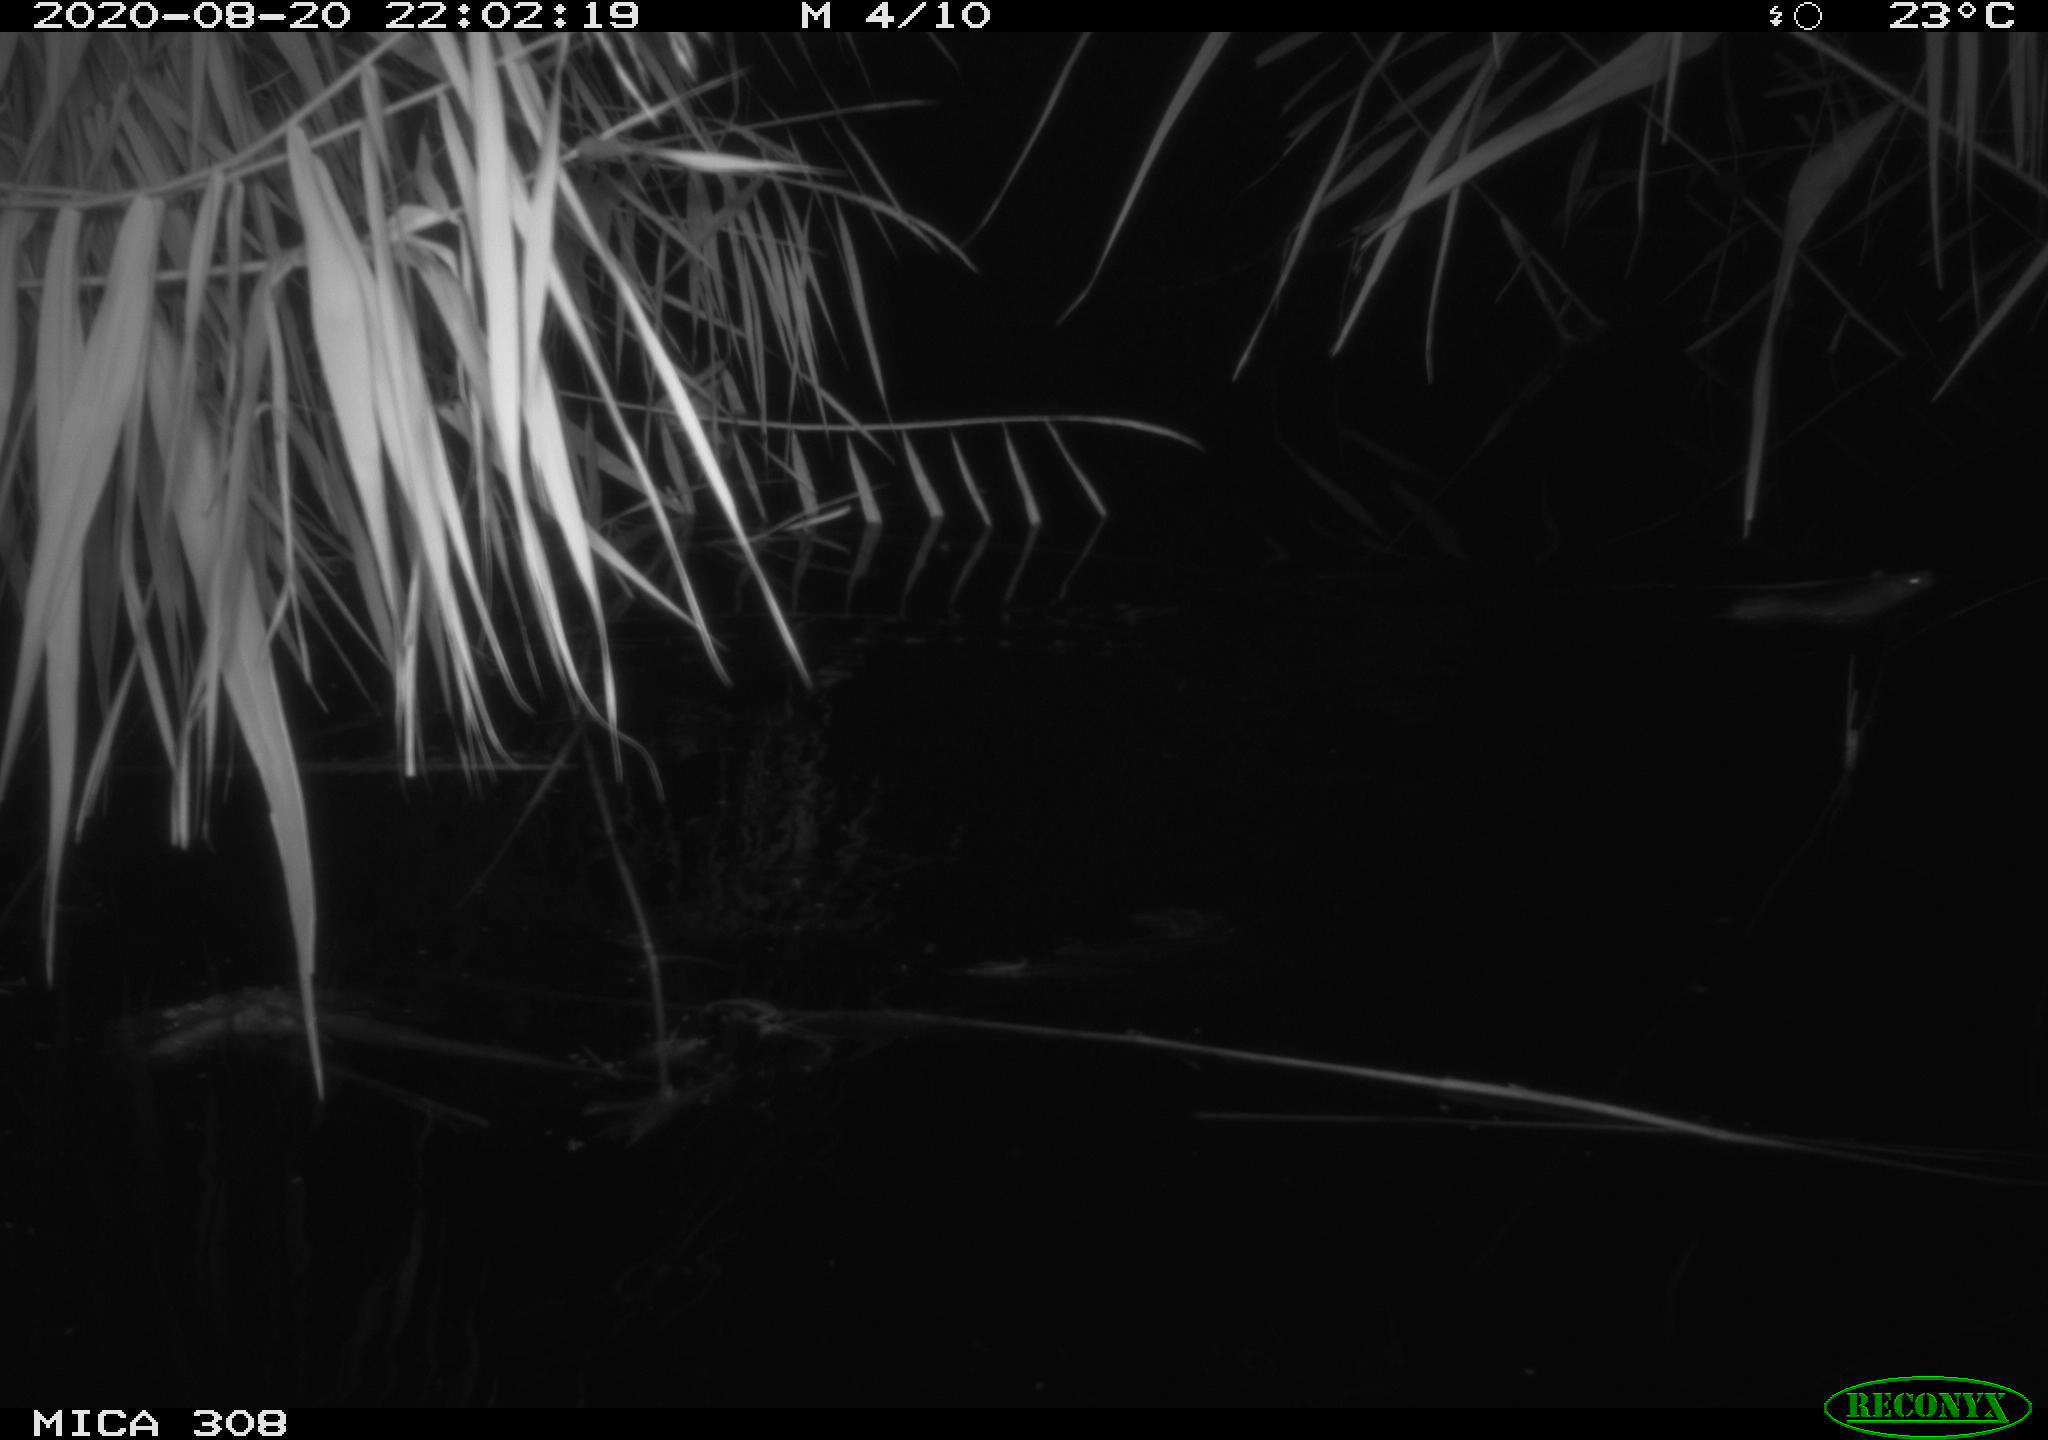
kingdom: Animalia
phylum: Chordata
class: Mammalia
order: Rodentia
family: Muridae
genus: Rattus
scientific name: Rattus norvegicus
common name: Brown rat
